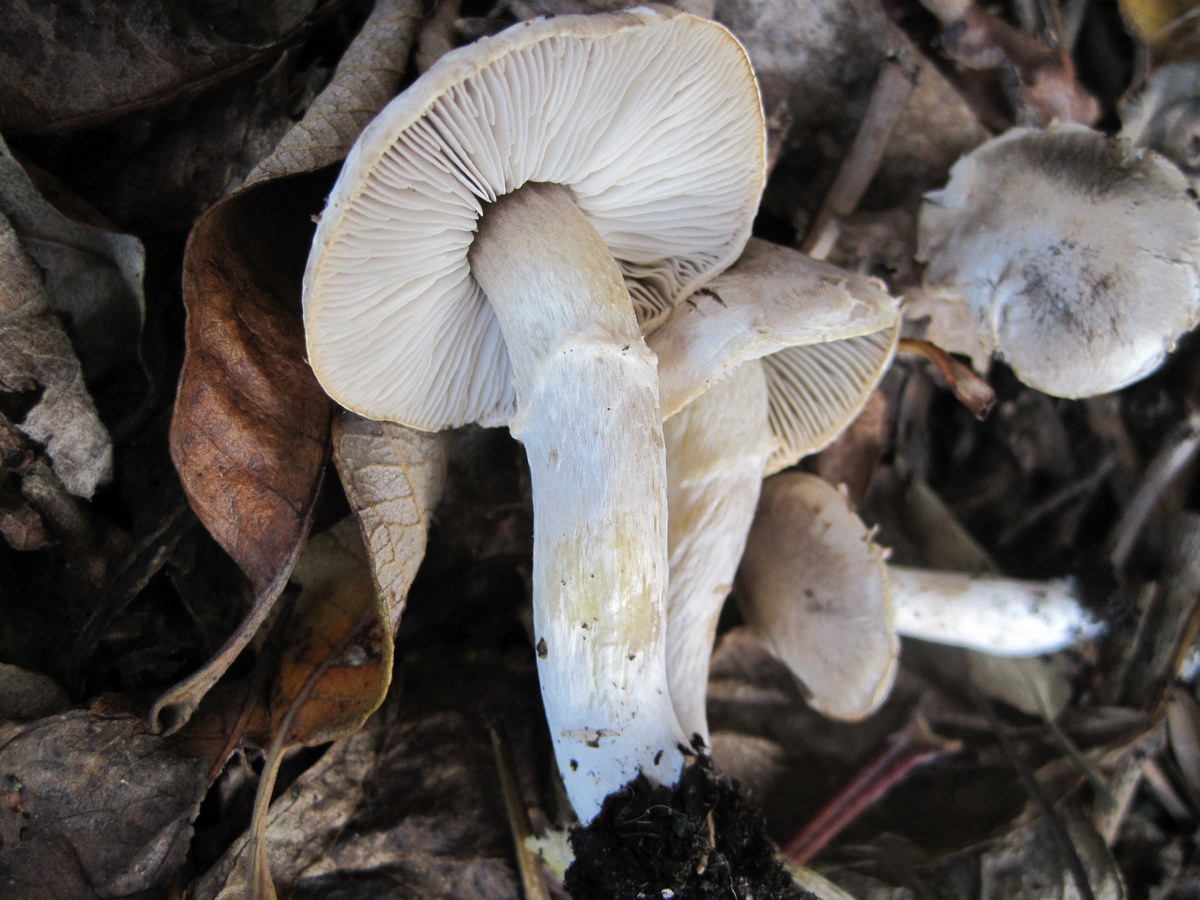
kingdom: Fungi
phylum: Basidiomycota
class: Agaricomycetes
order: Agaricales
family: Tricholomataceae
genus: Tricholoma
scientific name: Tricholoma cingulatum
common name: ring-ridderhat
